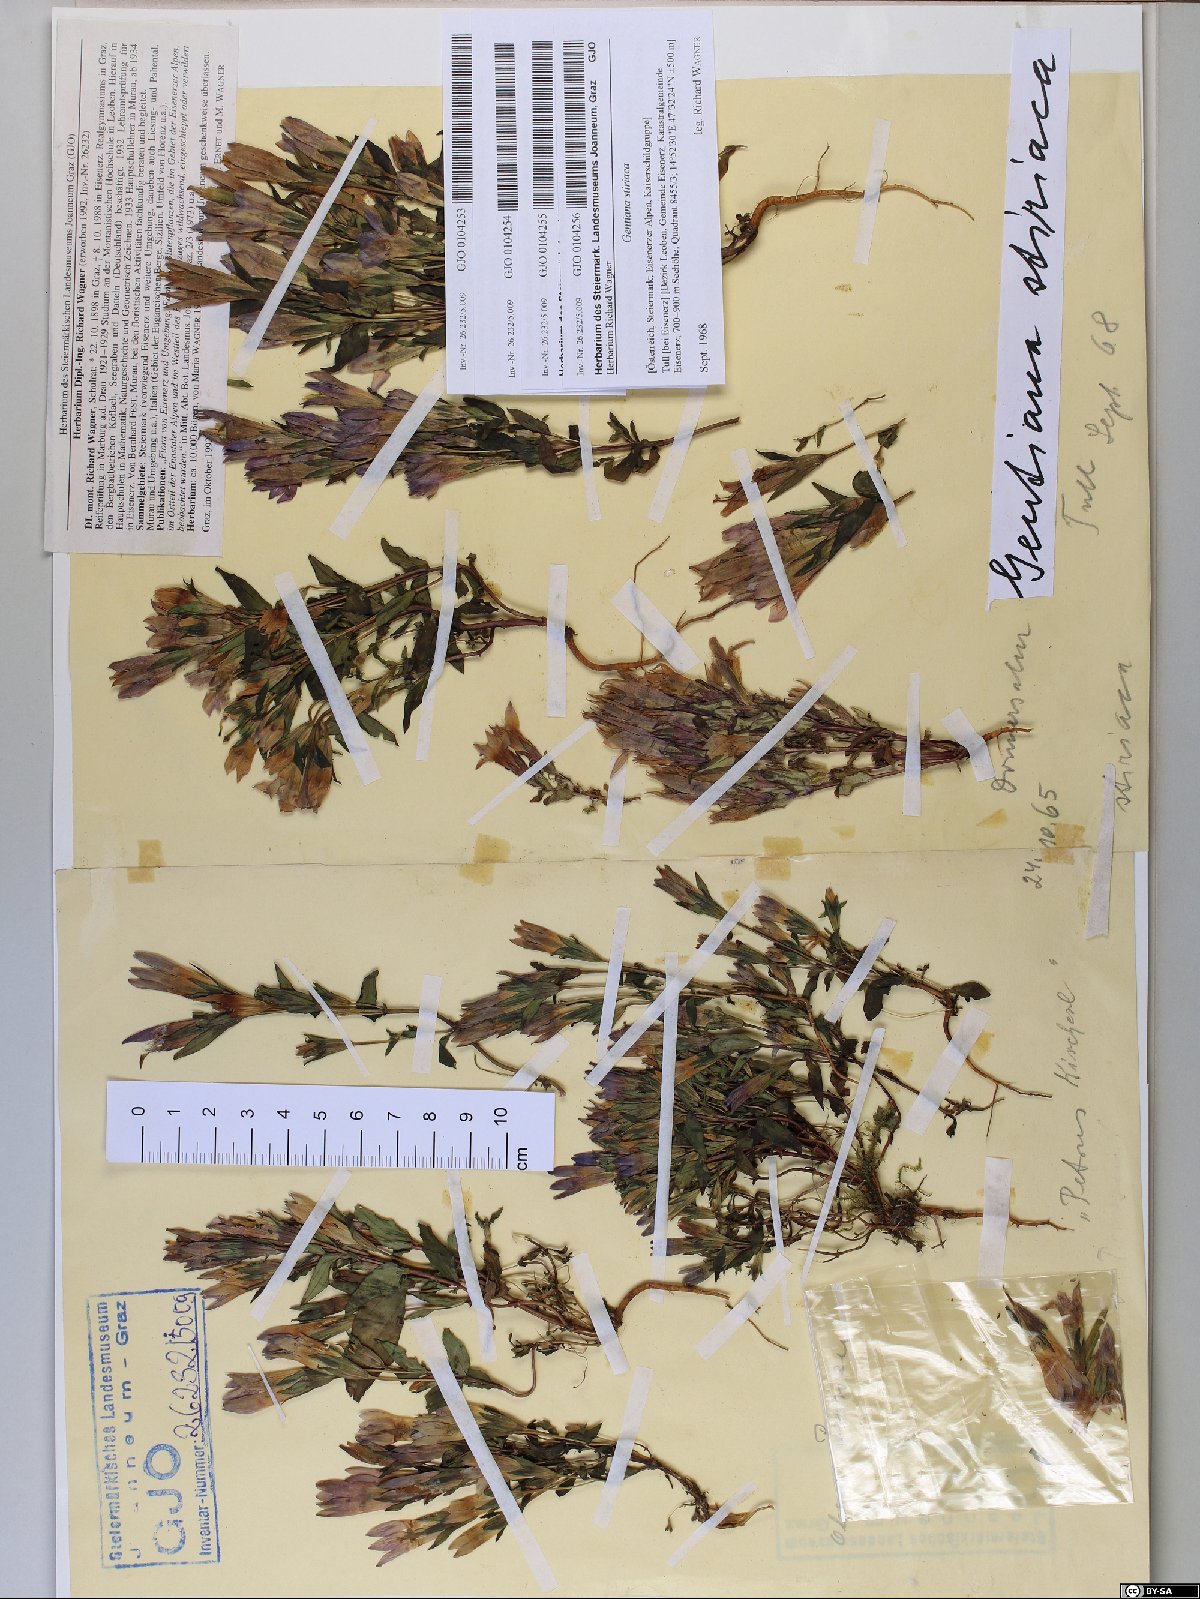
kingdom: Plantae
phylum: Tracheophyta
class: Magnoliopsida
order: Gentianales
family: Gentianaceae
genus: Gentianella
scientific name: Gentianella rhaetica
